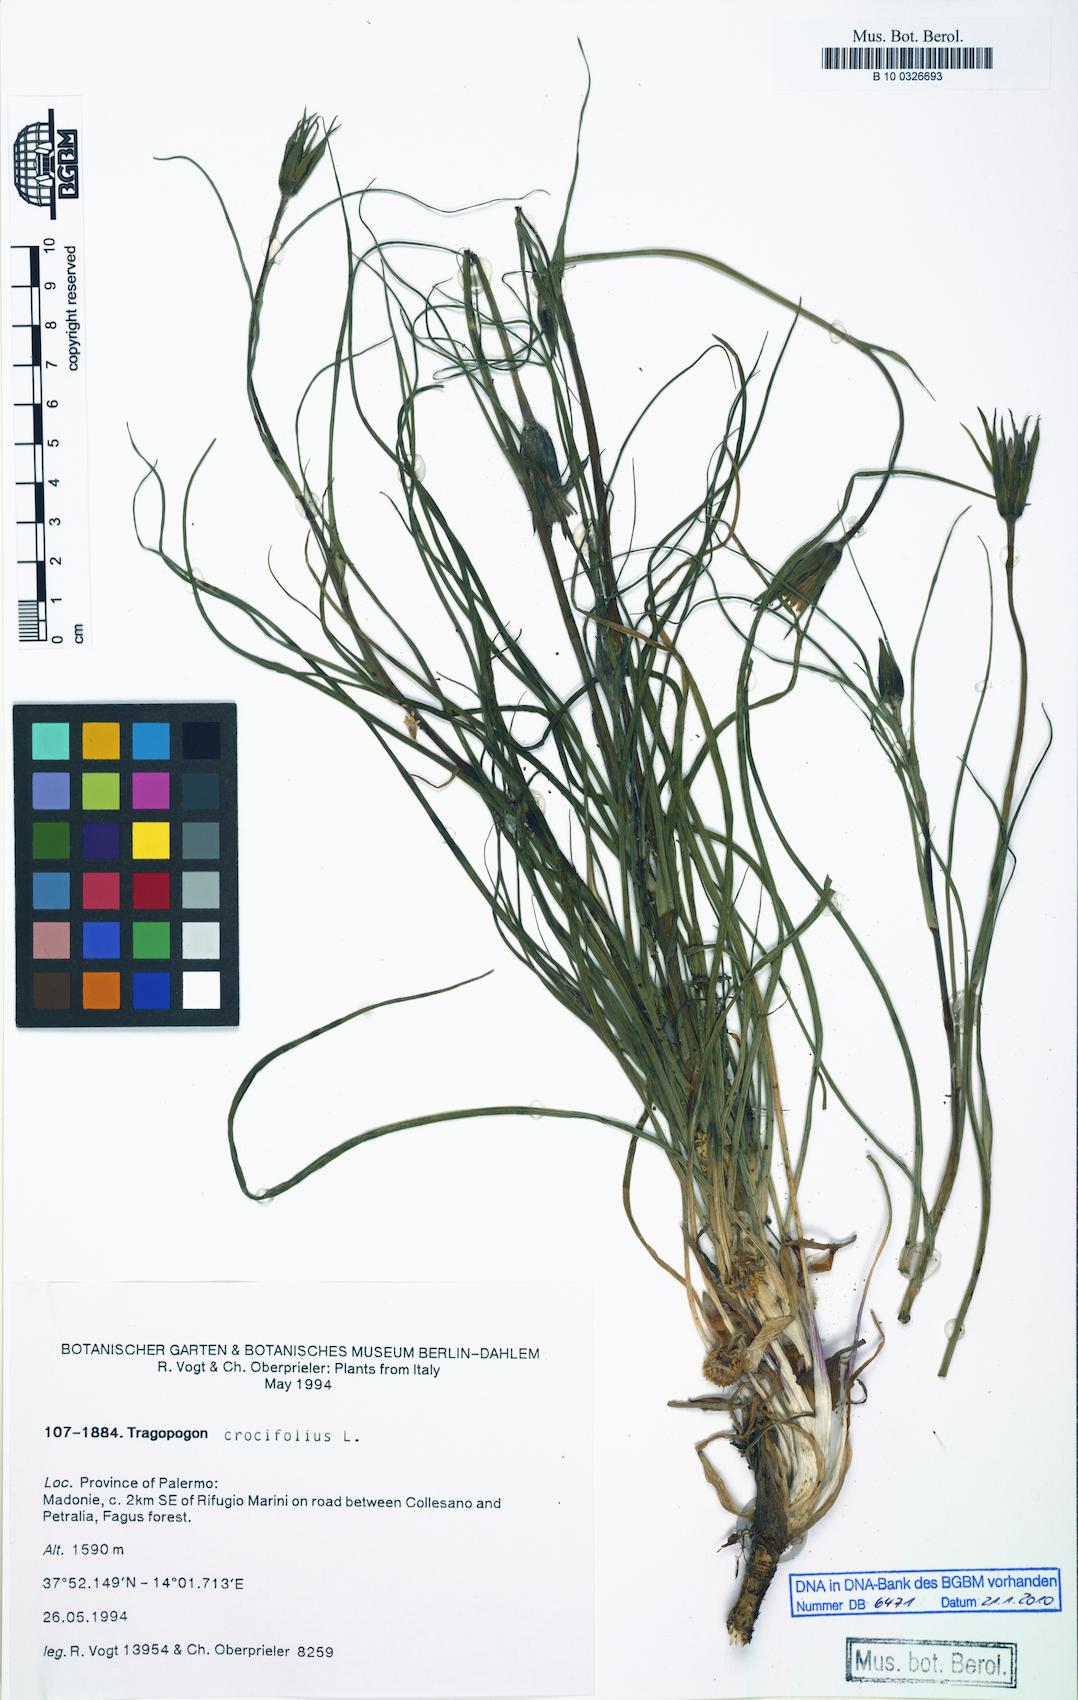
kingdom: Plantae
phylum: Tracheophyta
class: Magnoliopsida
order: Asterales
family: Asteraceae
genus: Tragopogon
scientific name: Tragopogon crocifolius
